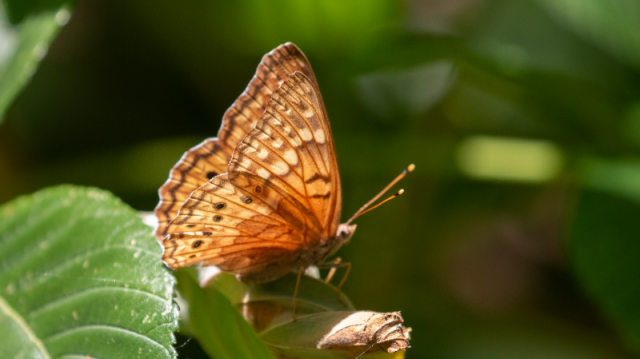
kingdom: Animalia
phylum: Arthropoda
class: Insecta
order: Lepidoptera
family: Nymphalidae
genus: Asterocampa
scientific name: Asterocampa clyton
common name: Tawny Emperor
